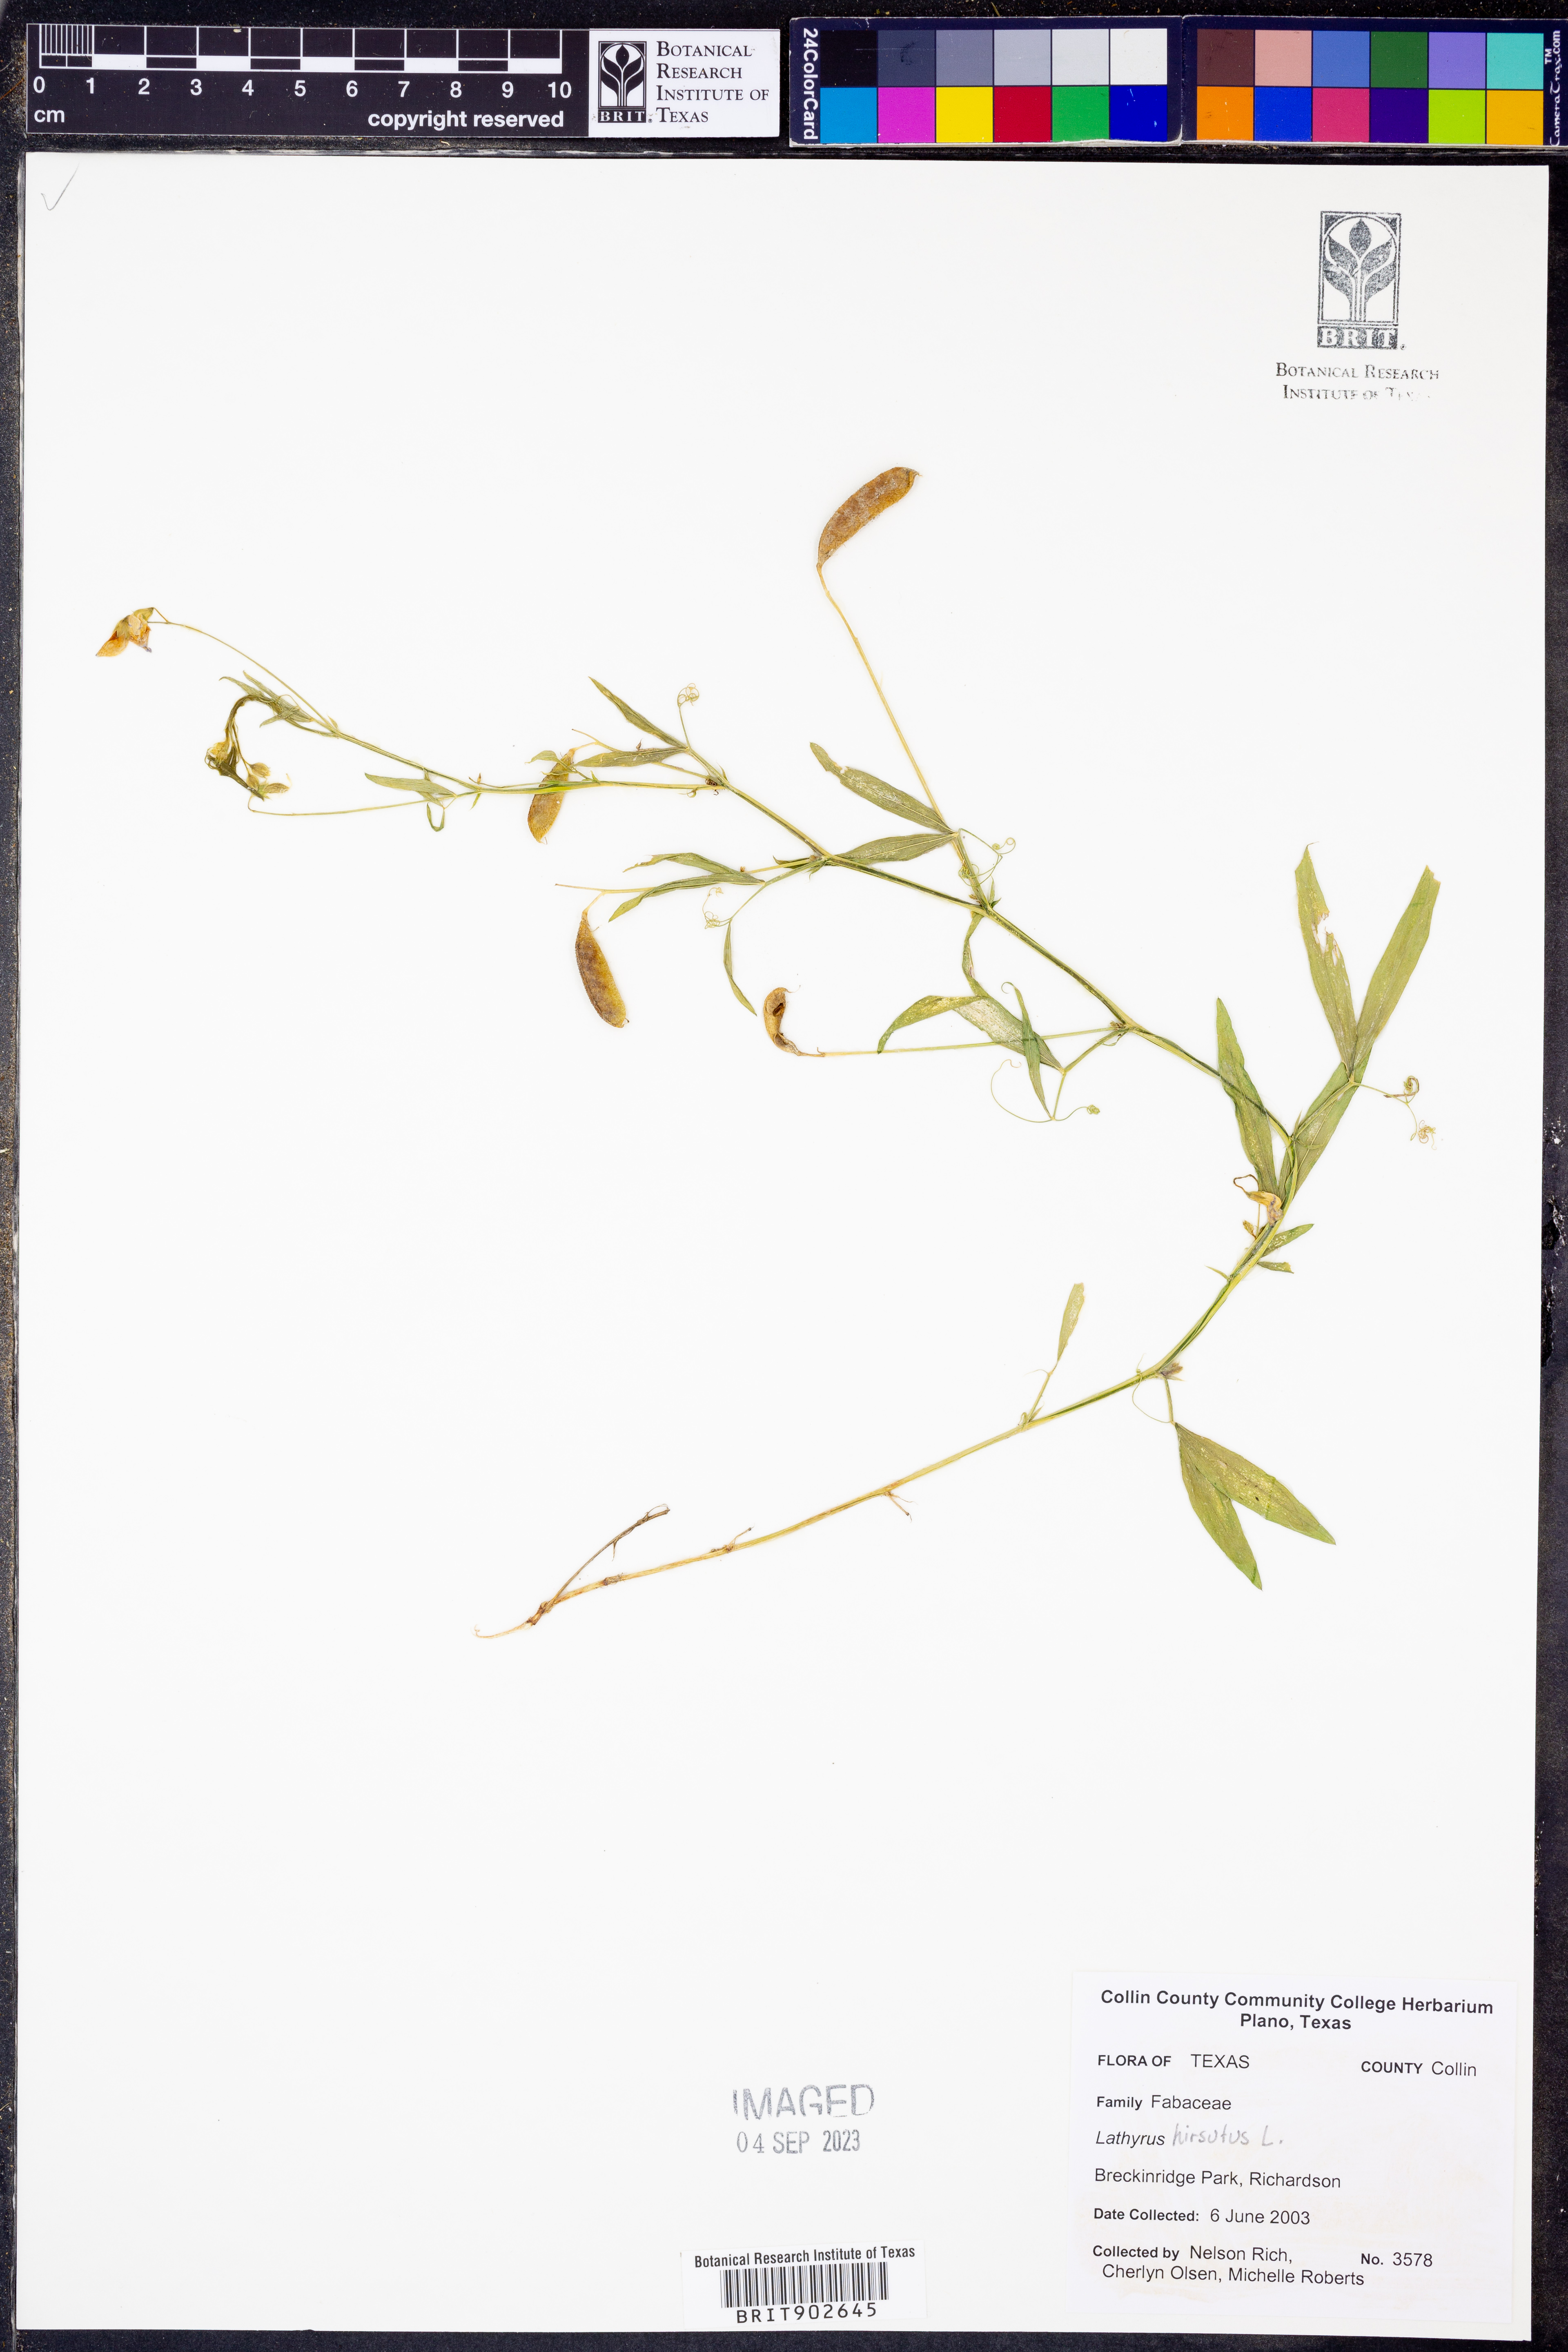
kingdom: Plantae
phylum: Tracheophyta
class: Magnoliopsida
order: Fabales
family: Fabaceae
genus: Lathyrus
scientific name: Lathyrus hirsutus
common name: Hairy vetchling
